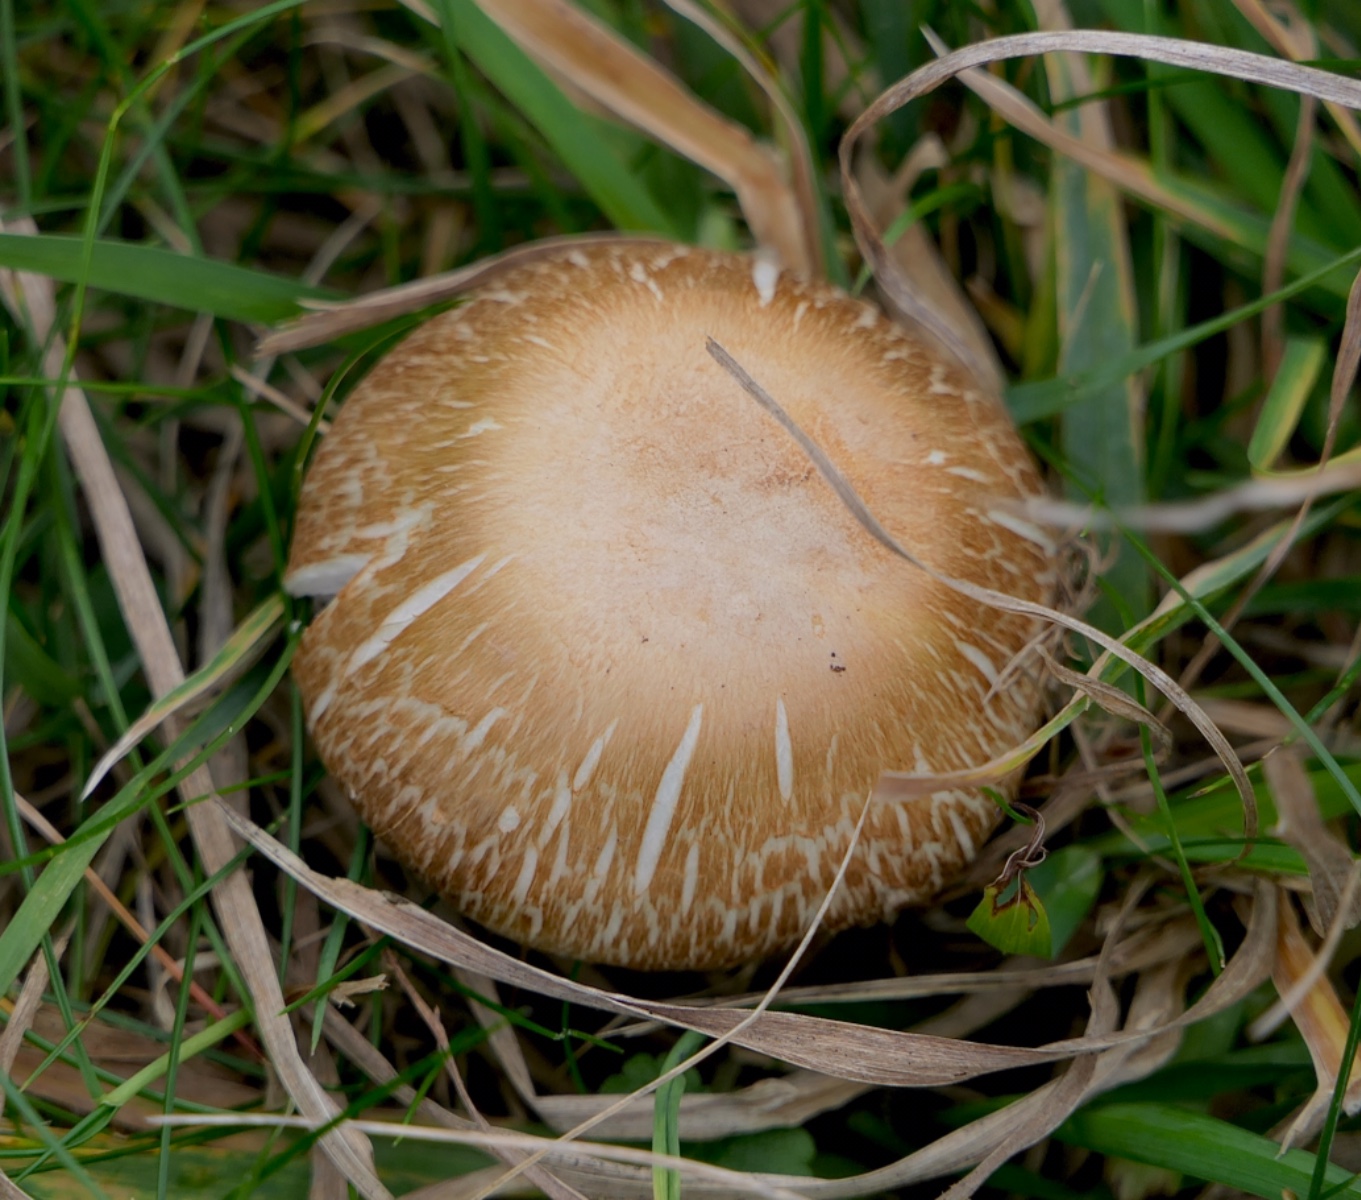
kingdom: Fungi
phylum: Basidiomycota
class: Agaricomycetes
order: Agaricales
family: Agaricaceae
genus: Agaricus
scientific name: Agaricus
